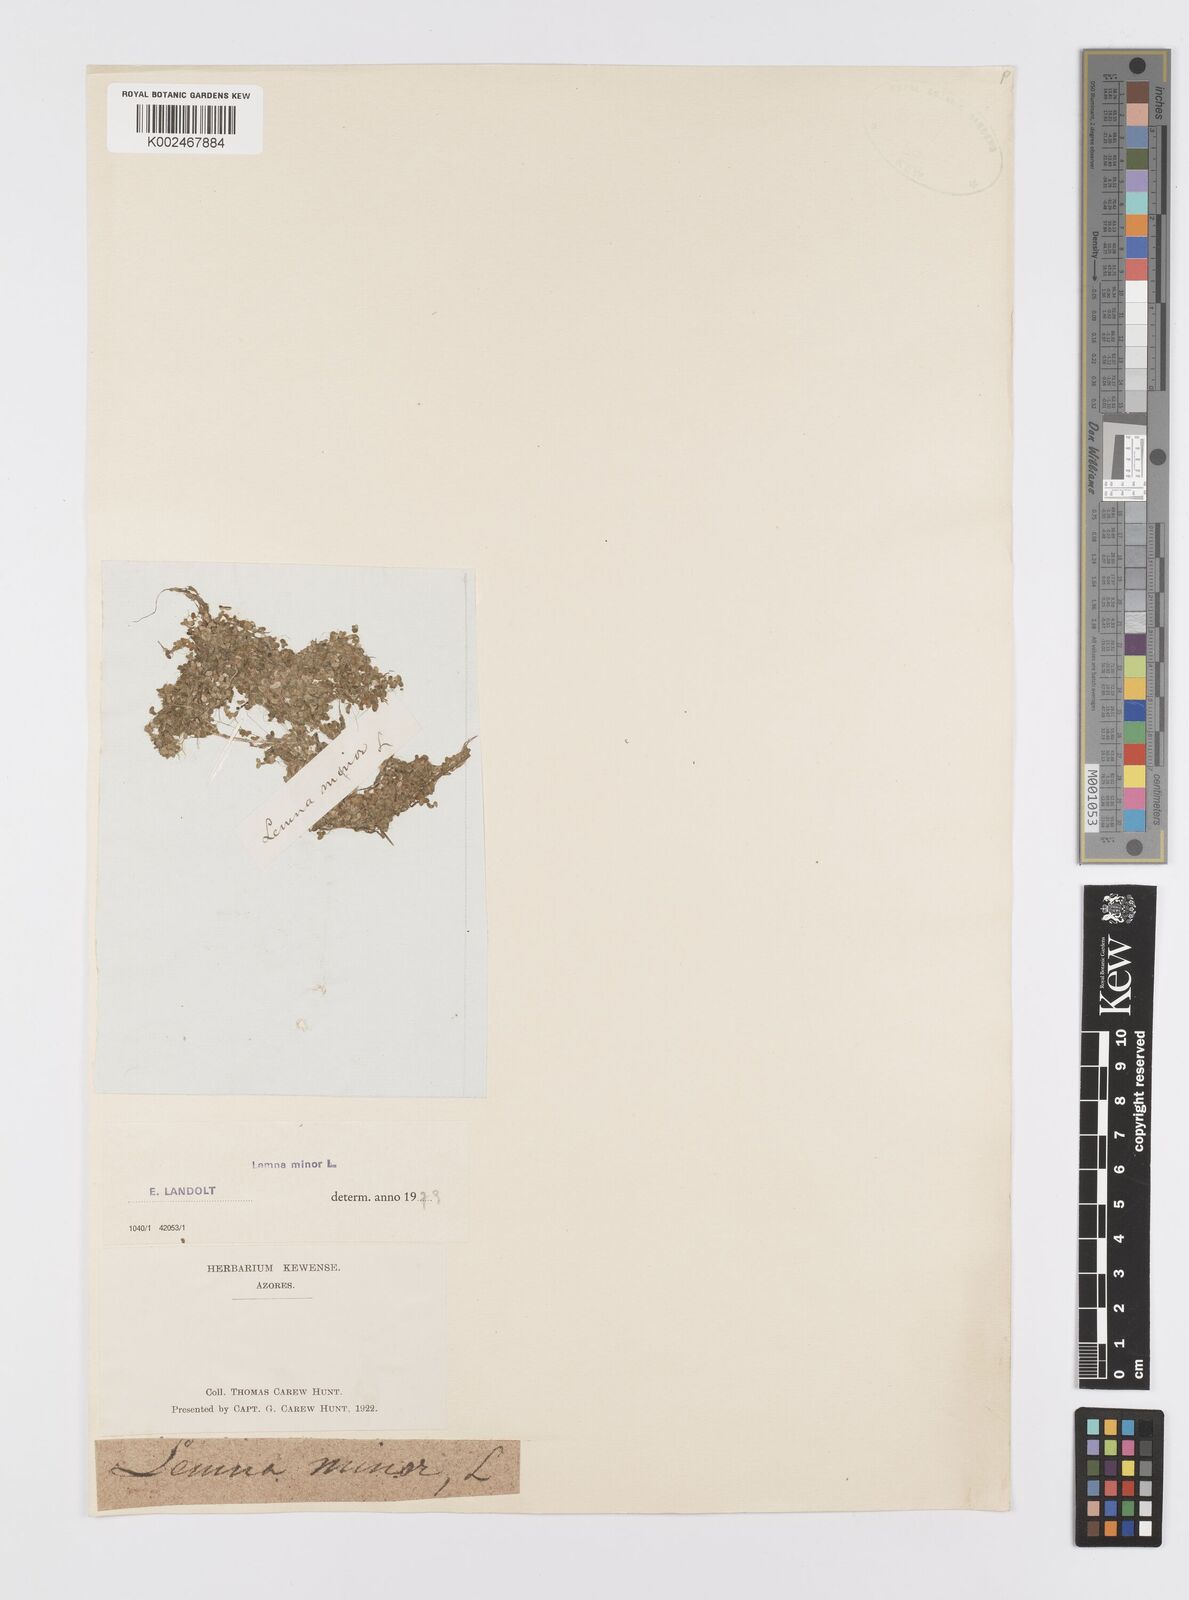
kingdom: Plantae
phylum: Tracheophyta
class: Liliopsida
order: Alismatales
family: Araceae
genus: Lemna
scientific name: Lemna minor
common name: Common duckweed
